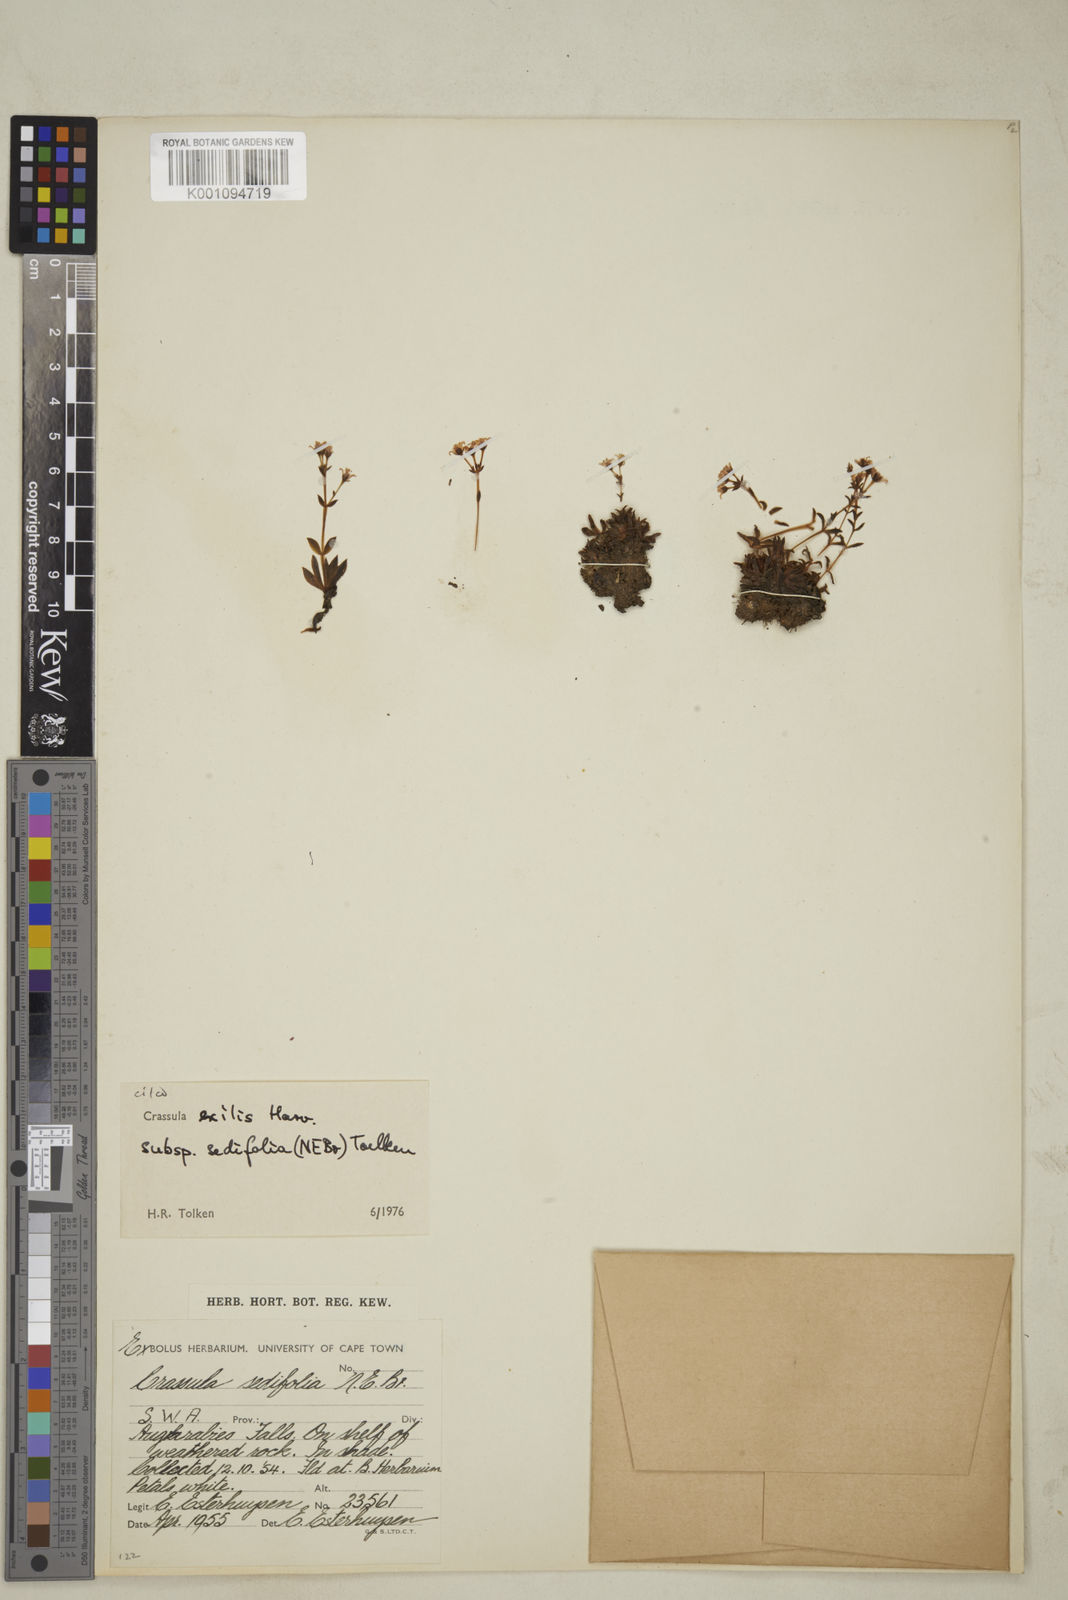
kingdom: Plantae
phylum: Tracheophyta
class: Magnoliopsida
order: Saxifragales
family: Crassulaceae
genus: Crassula
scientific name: Crassula exilis
